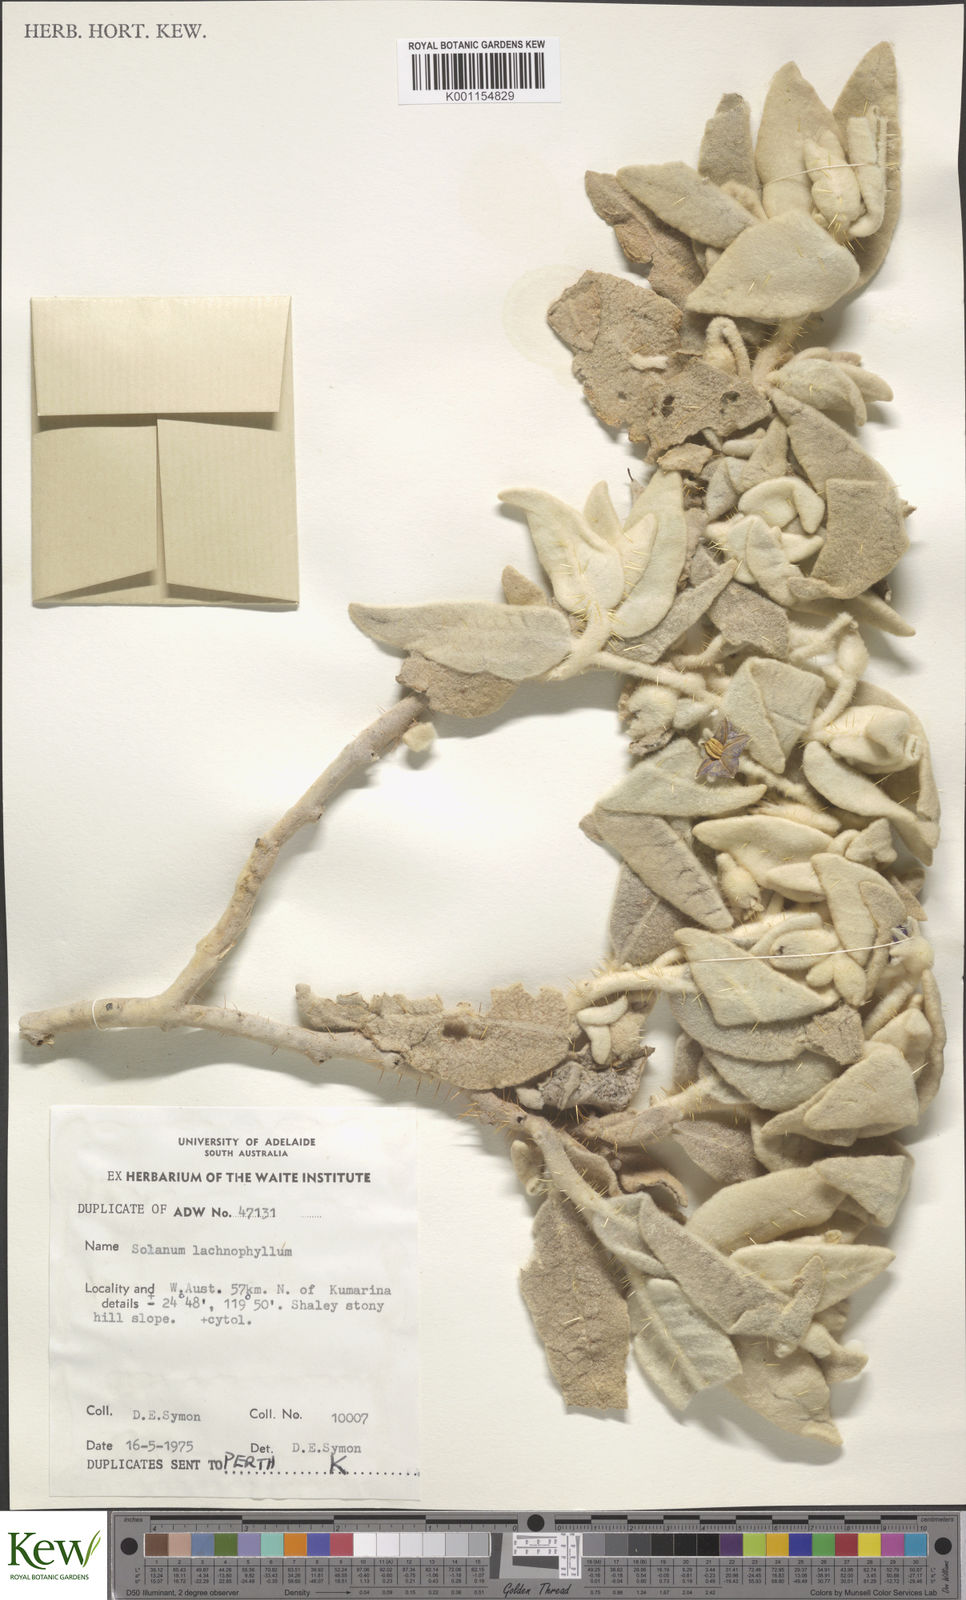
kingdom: Plantae
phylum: Tracheophyta
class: Magnoliopsida
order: Solanales
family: Solanaceae
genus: Solanum
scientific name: Solanum lachnophyllum
